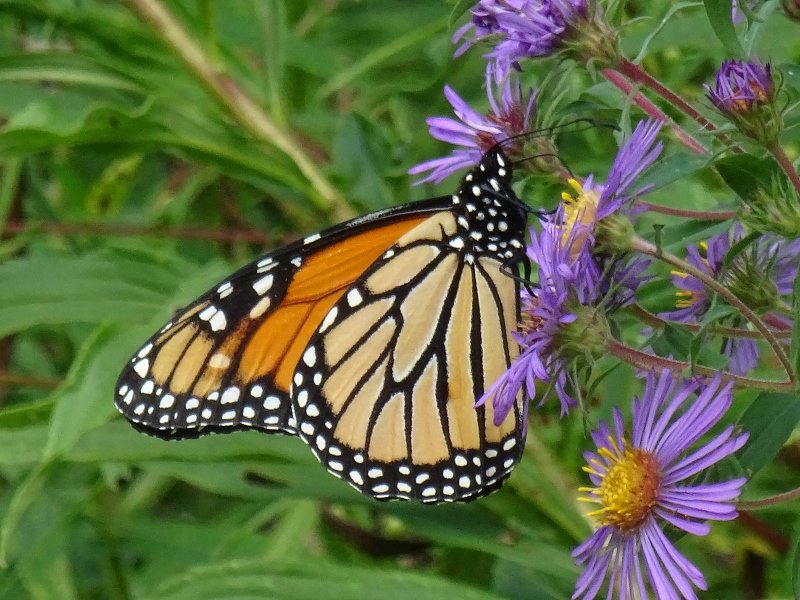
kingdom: Animalia
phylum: Arthropoda
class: Insecta
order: Lepidoptera
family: Nymphalidae
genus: Danaus
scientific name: Danaus plexippus
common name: Monarch
